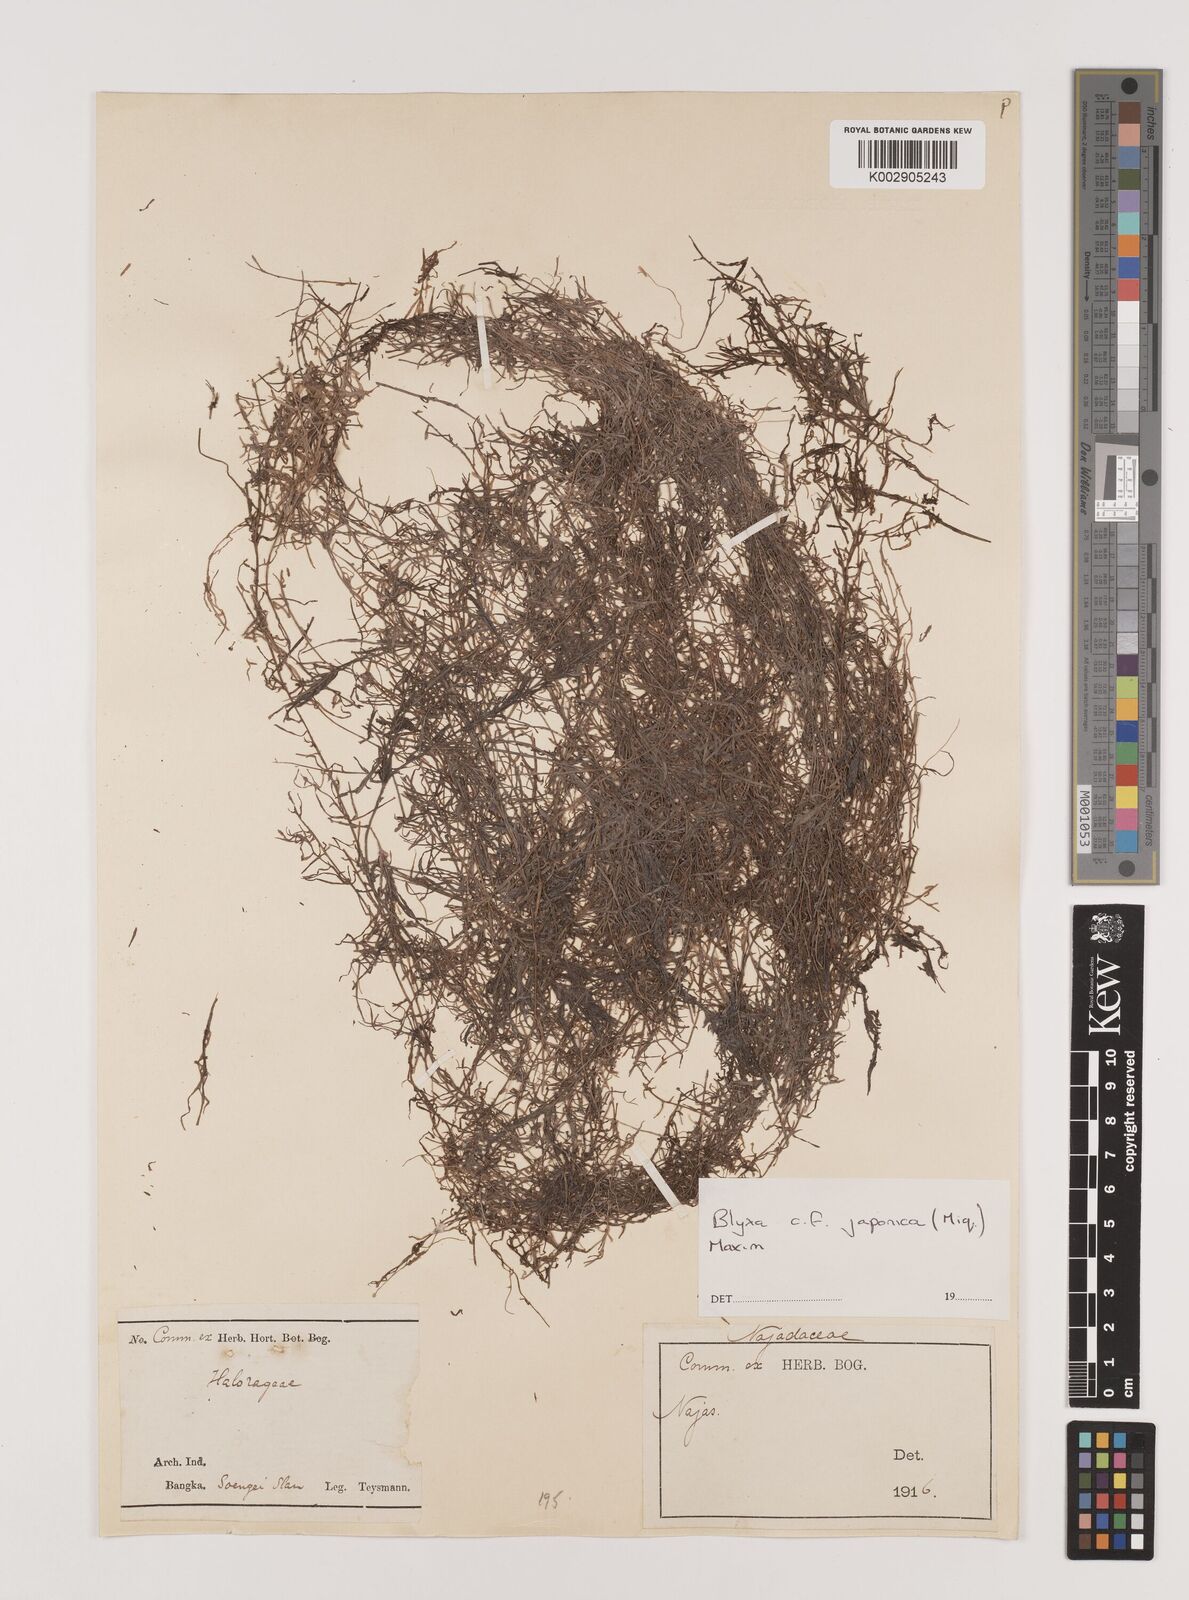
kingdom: Plantae
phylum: Tracheophyta
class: Liliopsida
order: Alismatales
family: Hydrocharitaceae
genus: Blyxa
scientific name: Blyxa japonica
